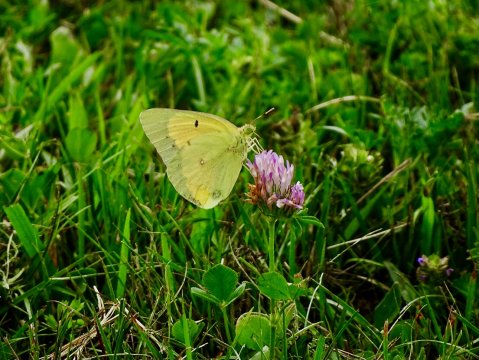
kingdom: Animalia
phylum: Arthropoda
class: Insecta
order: Lepidoptera
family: Pieridae
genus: Colias
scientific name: Colias eurytheme
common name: Orange Sulphur
